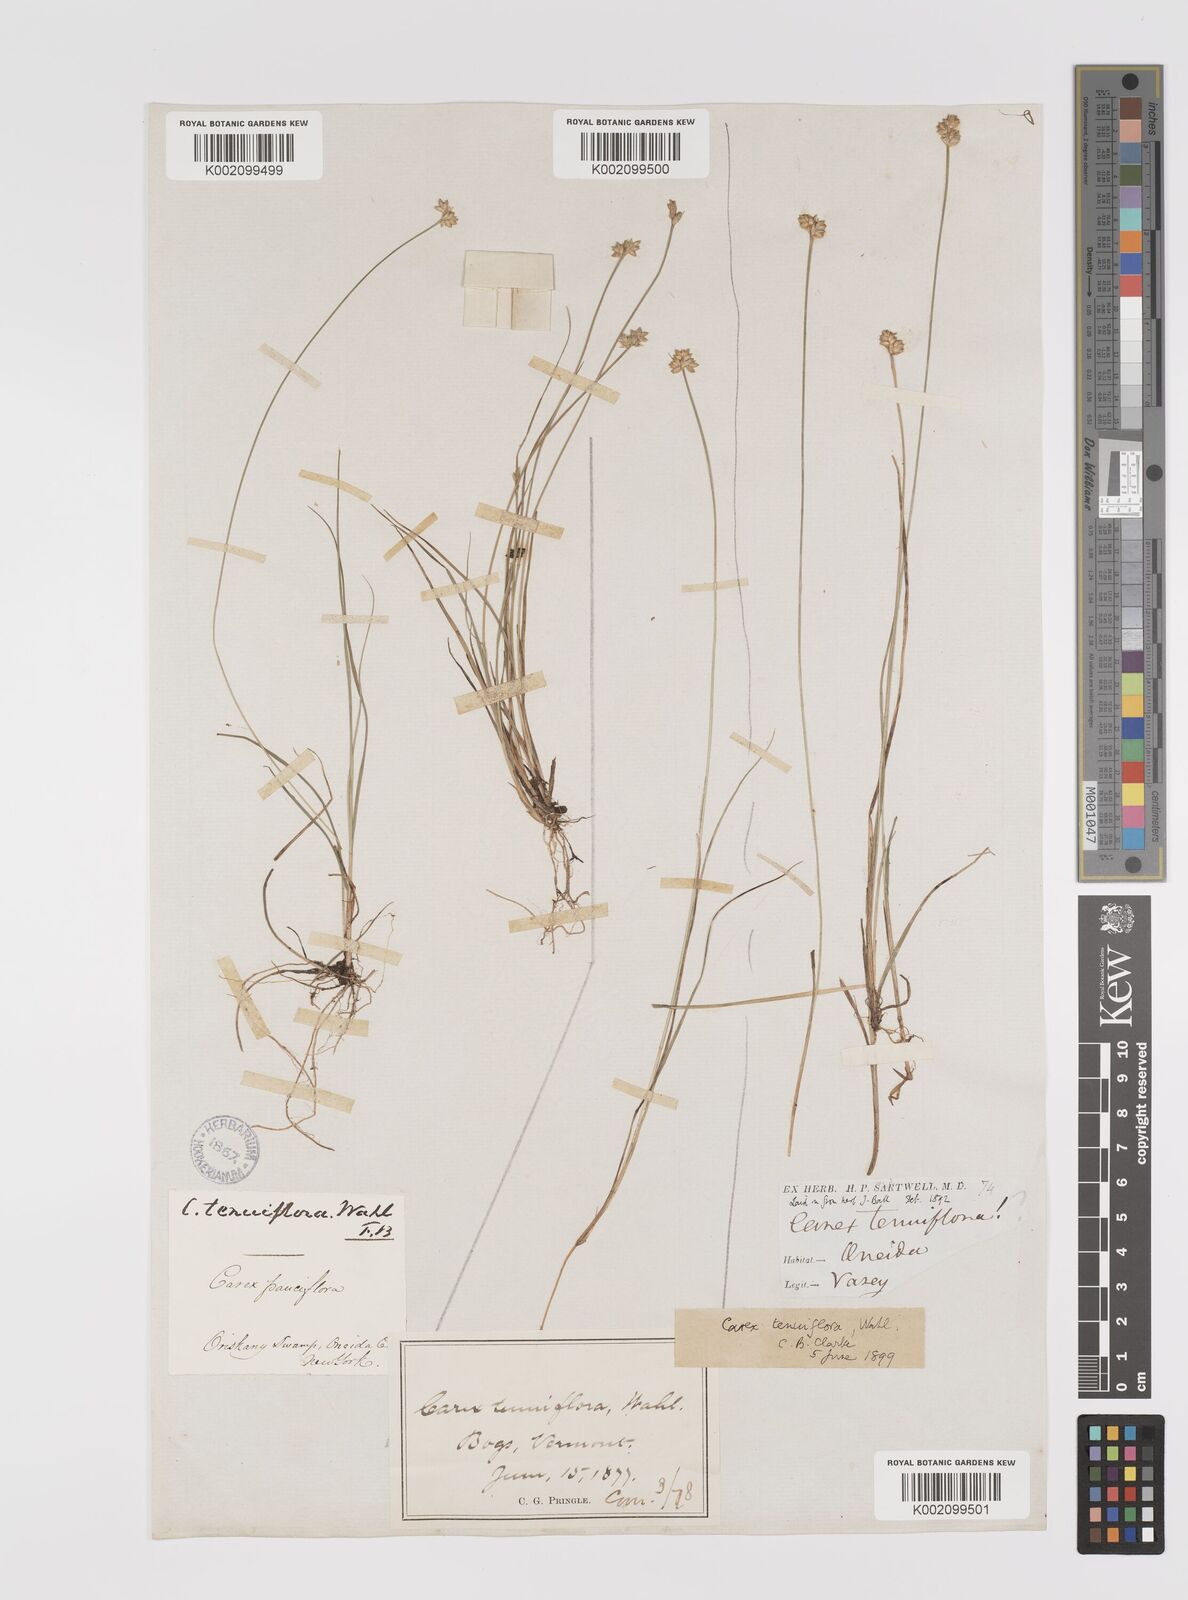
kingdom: Plantae
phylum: Tracheophyta
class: Liliopsida
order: Poales
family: Cyperaceae
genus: Carex
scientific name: Carex tenuiflora
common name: Sparse-flowered sedge
